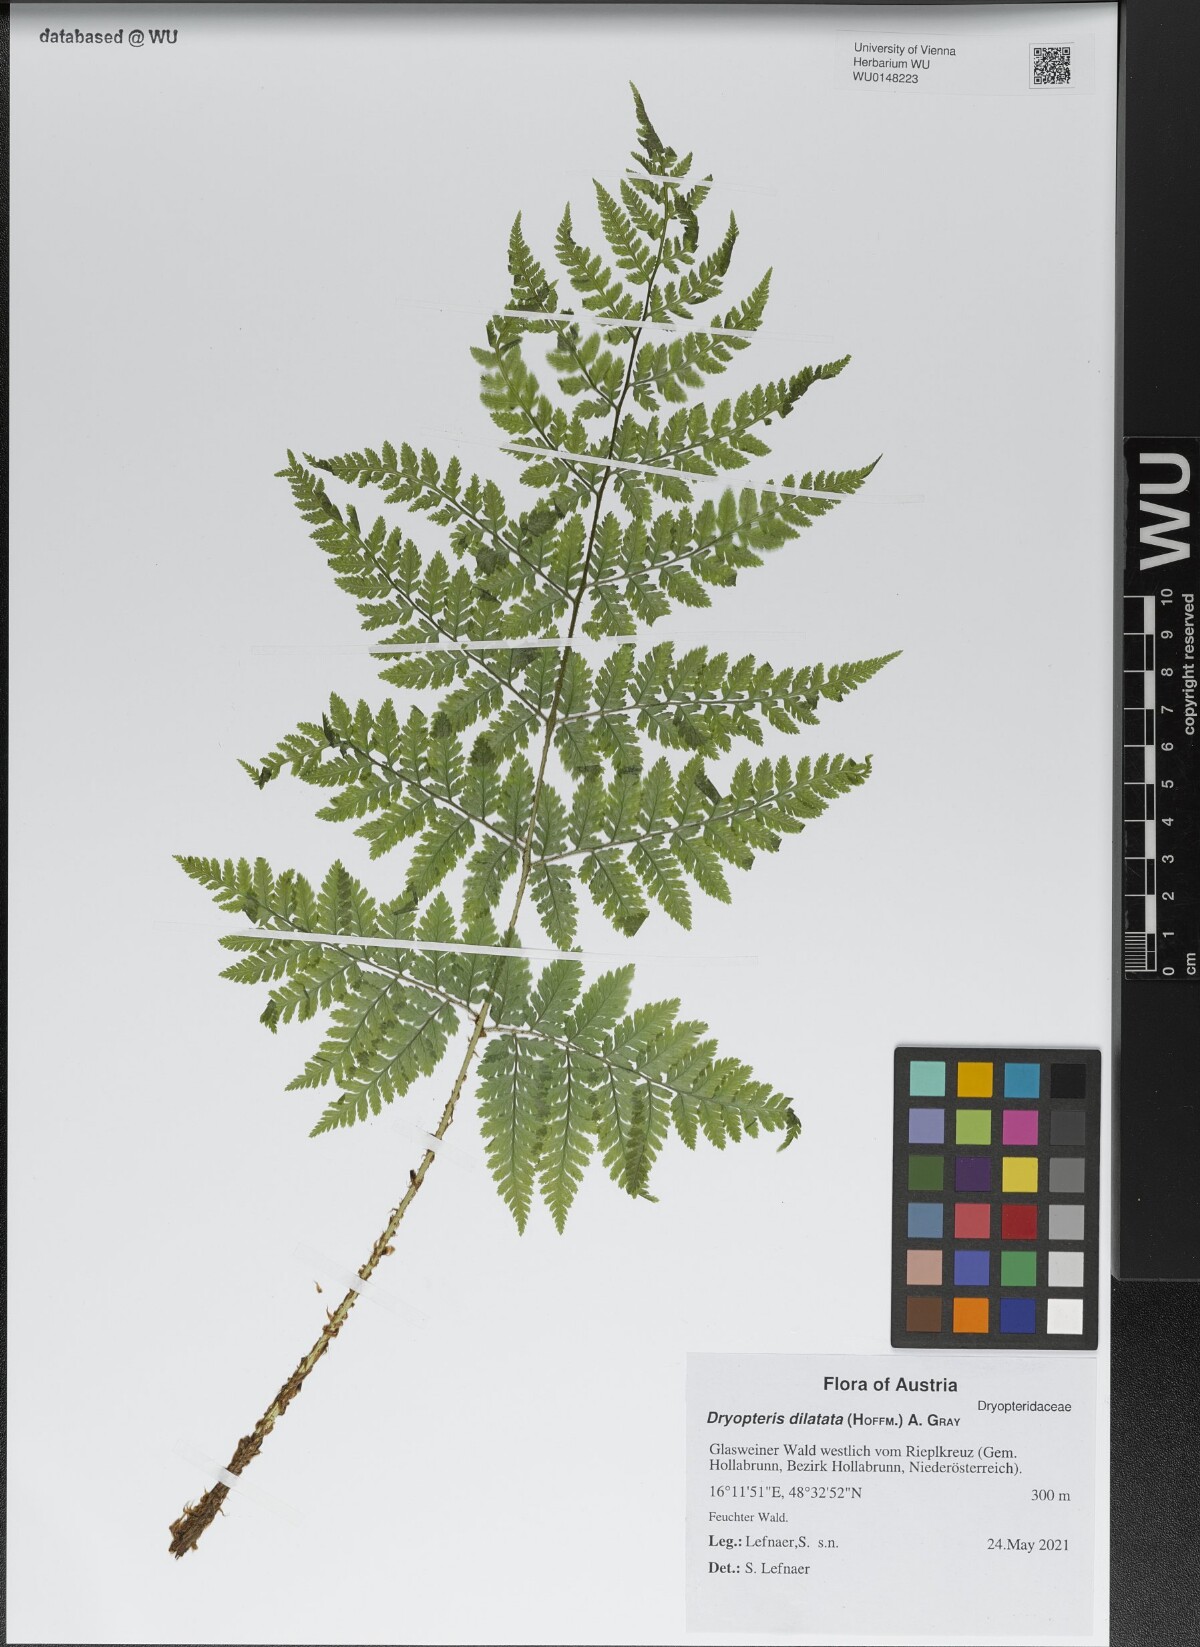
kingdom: Plantae
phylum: Tracheophyta
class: Polypodiopsida
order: Polypodiales
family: Dryopteridaceae
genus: Dryopteris
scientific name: Dryopteris dilatata
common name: Broad buckler-fern
